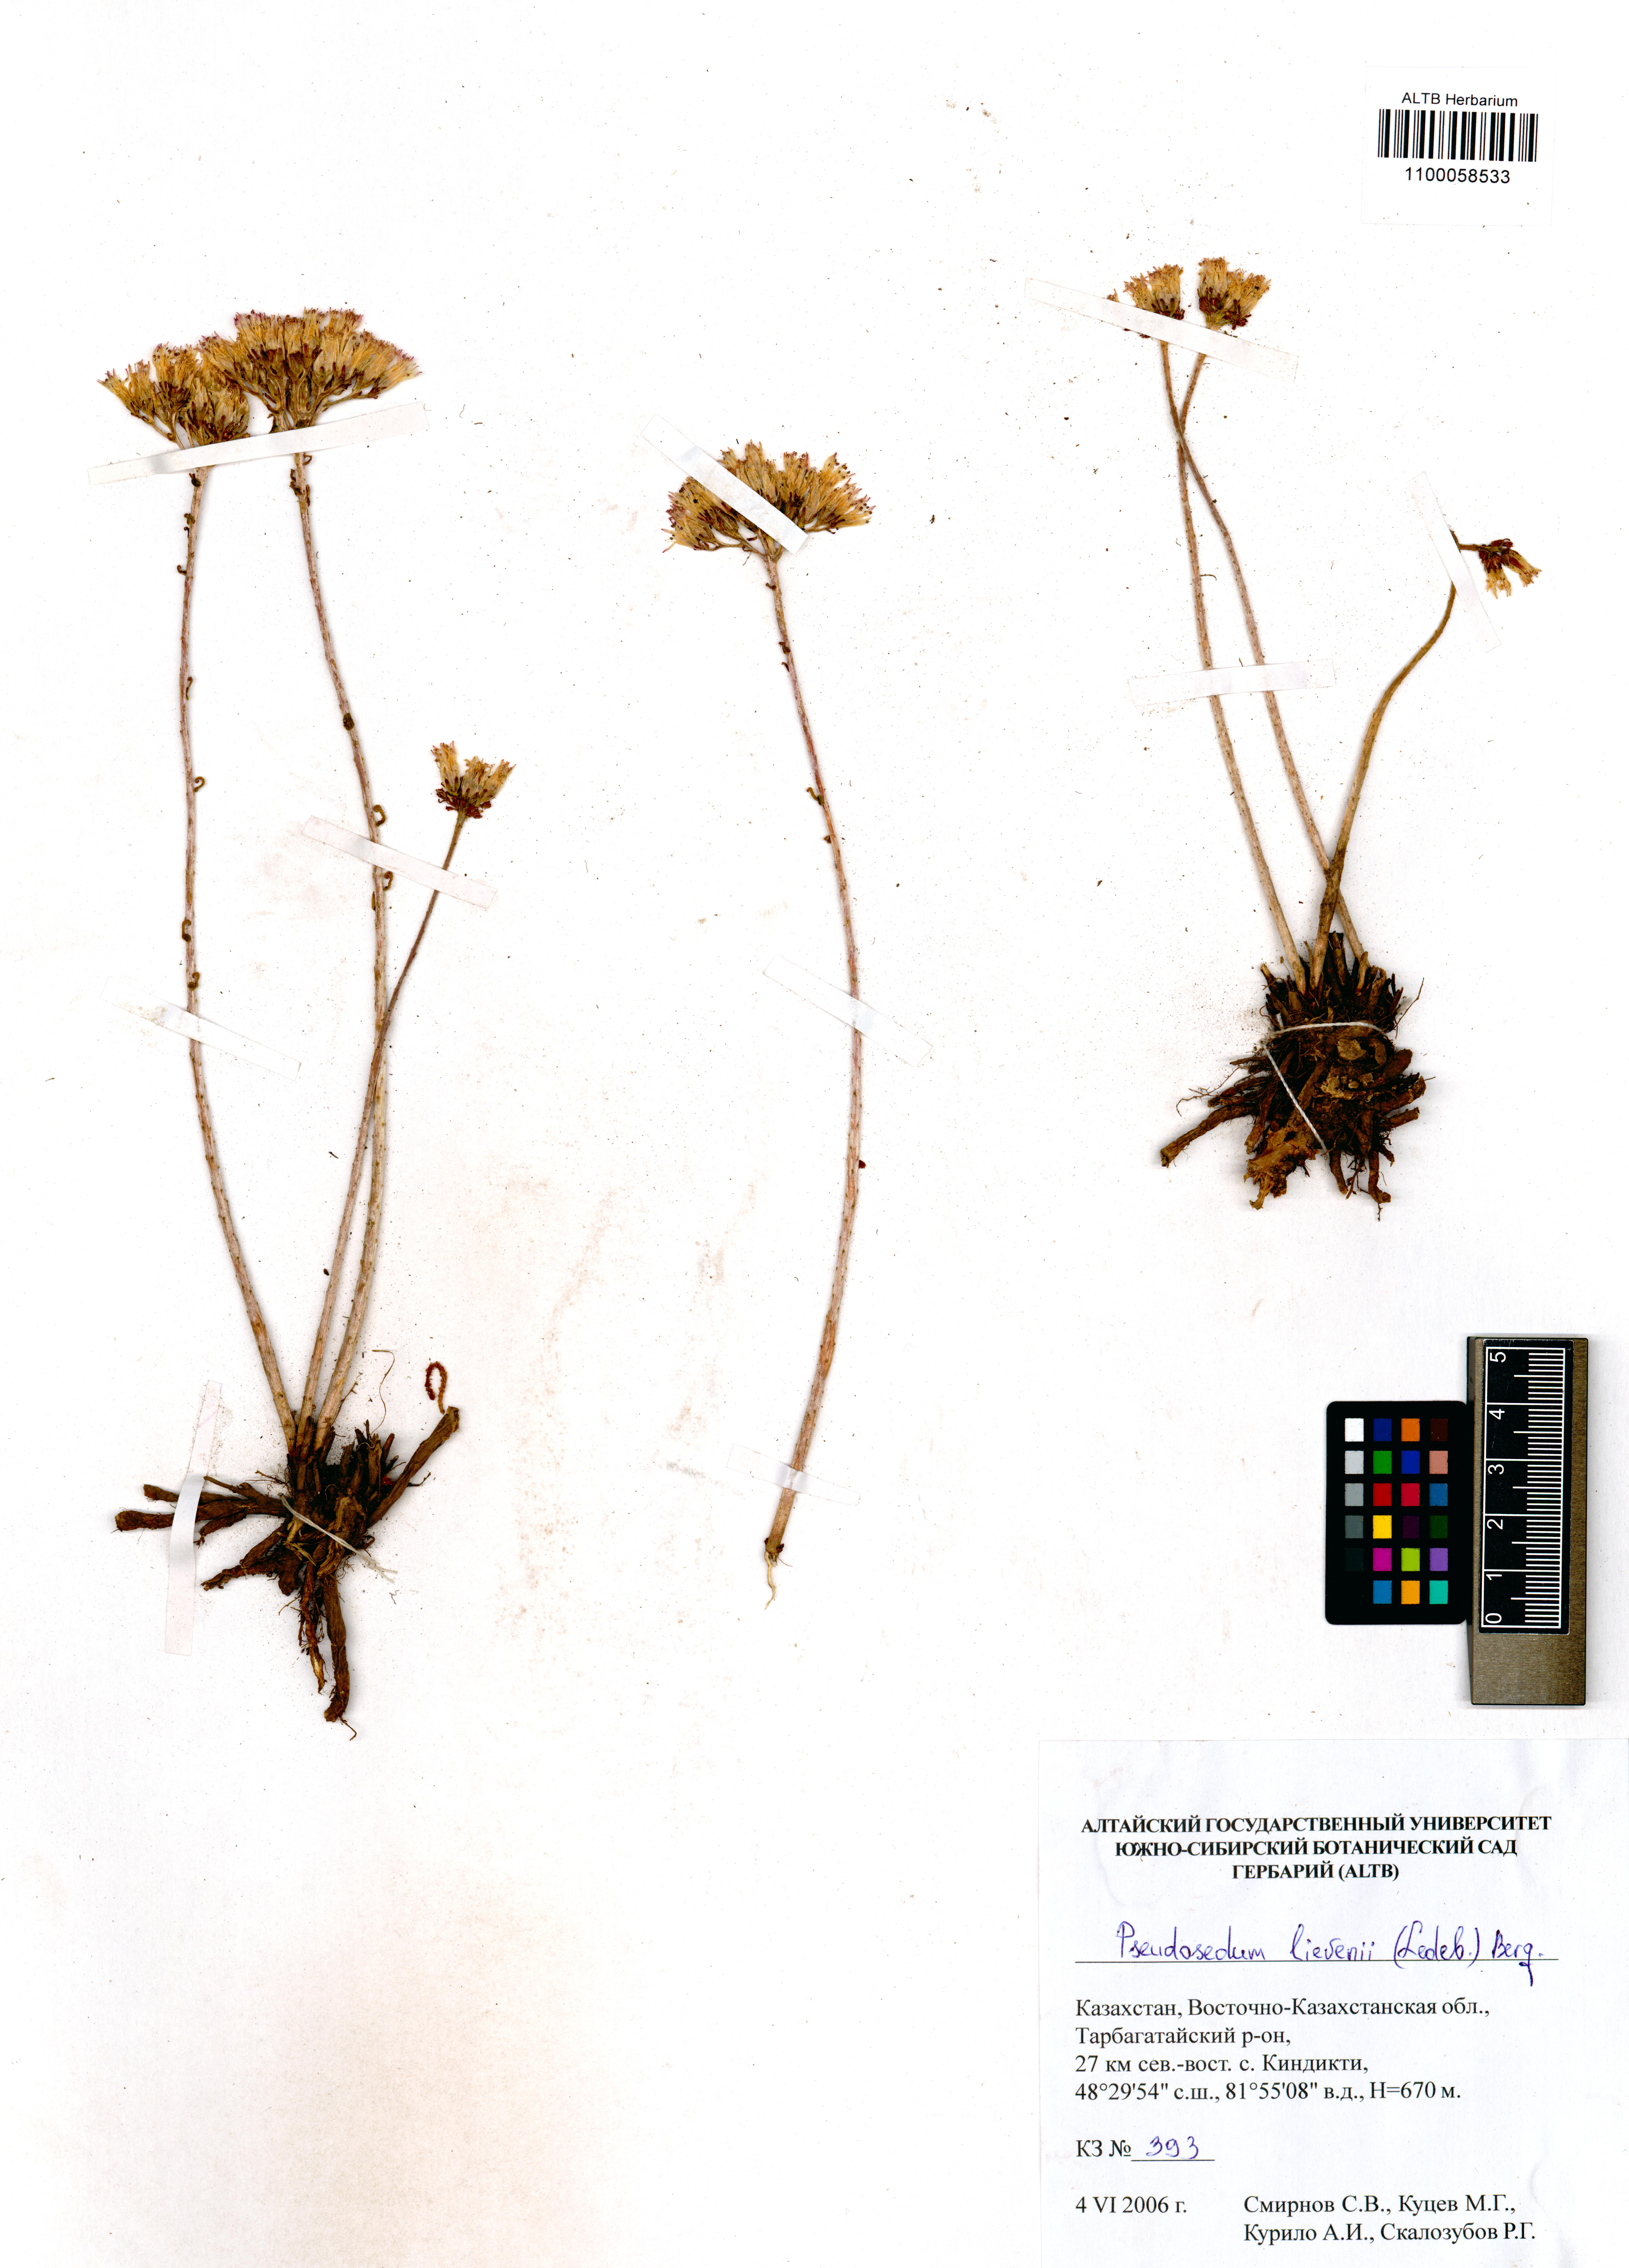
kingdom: Plantae
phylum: Tracheophyta
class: Magnoliopsida
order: Saxifragales
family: Crassulaceae
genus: Pseudosedum
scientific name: Pseudosedum lievenii
